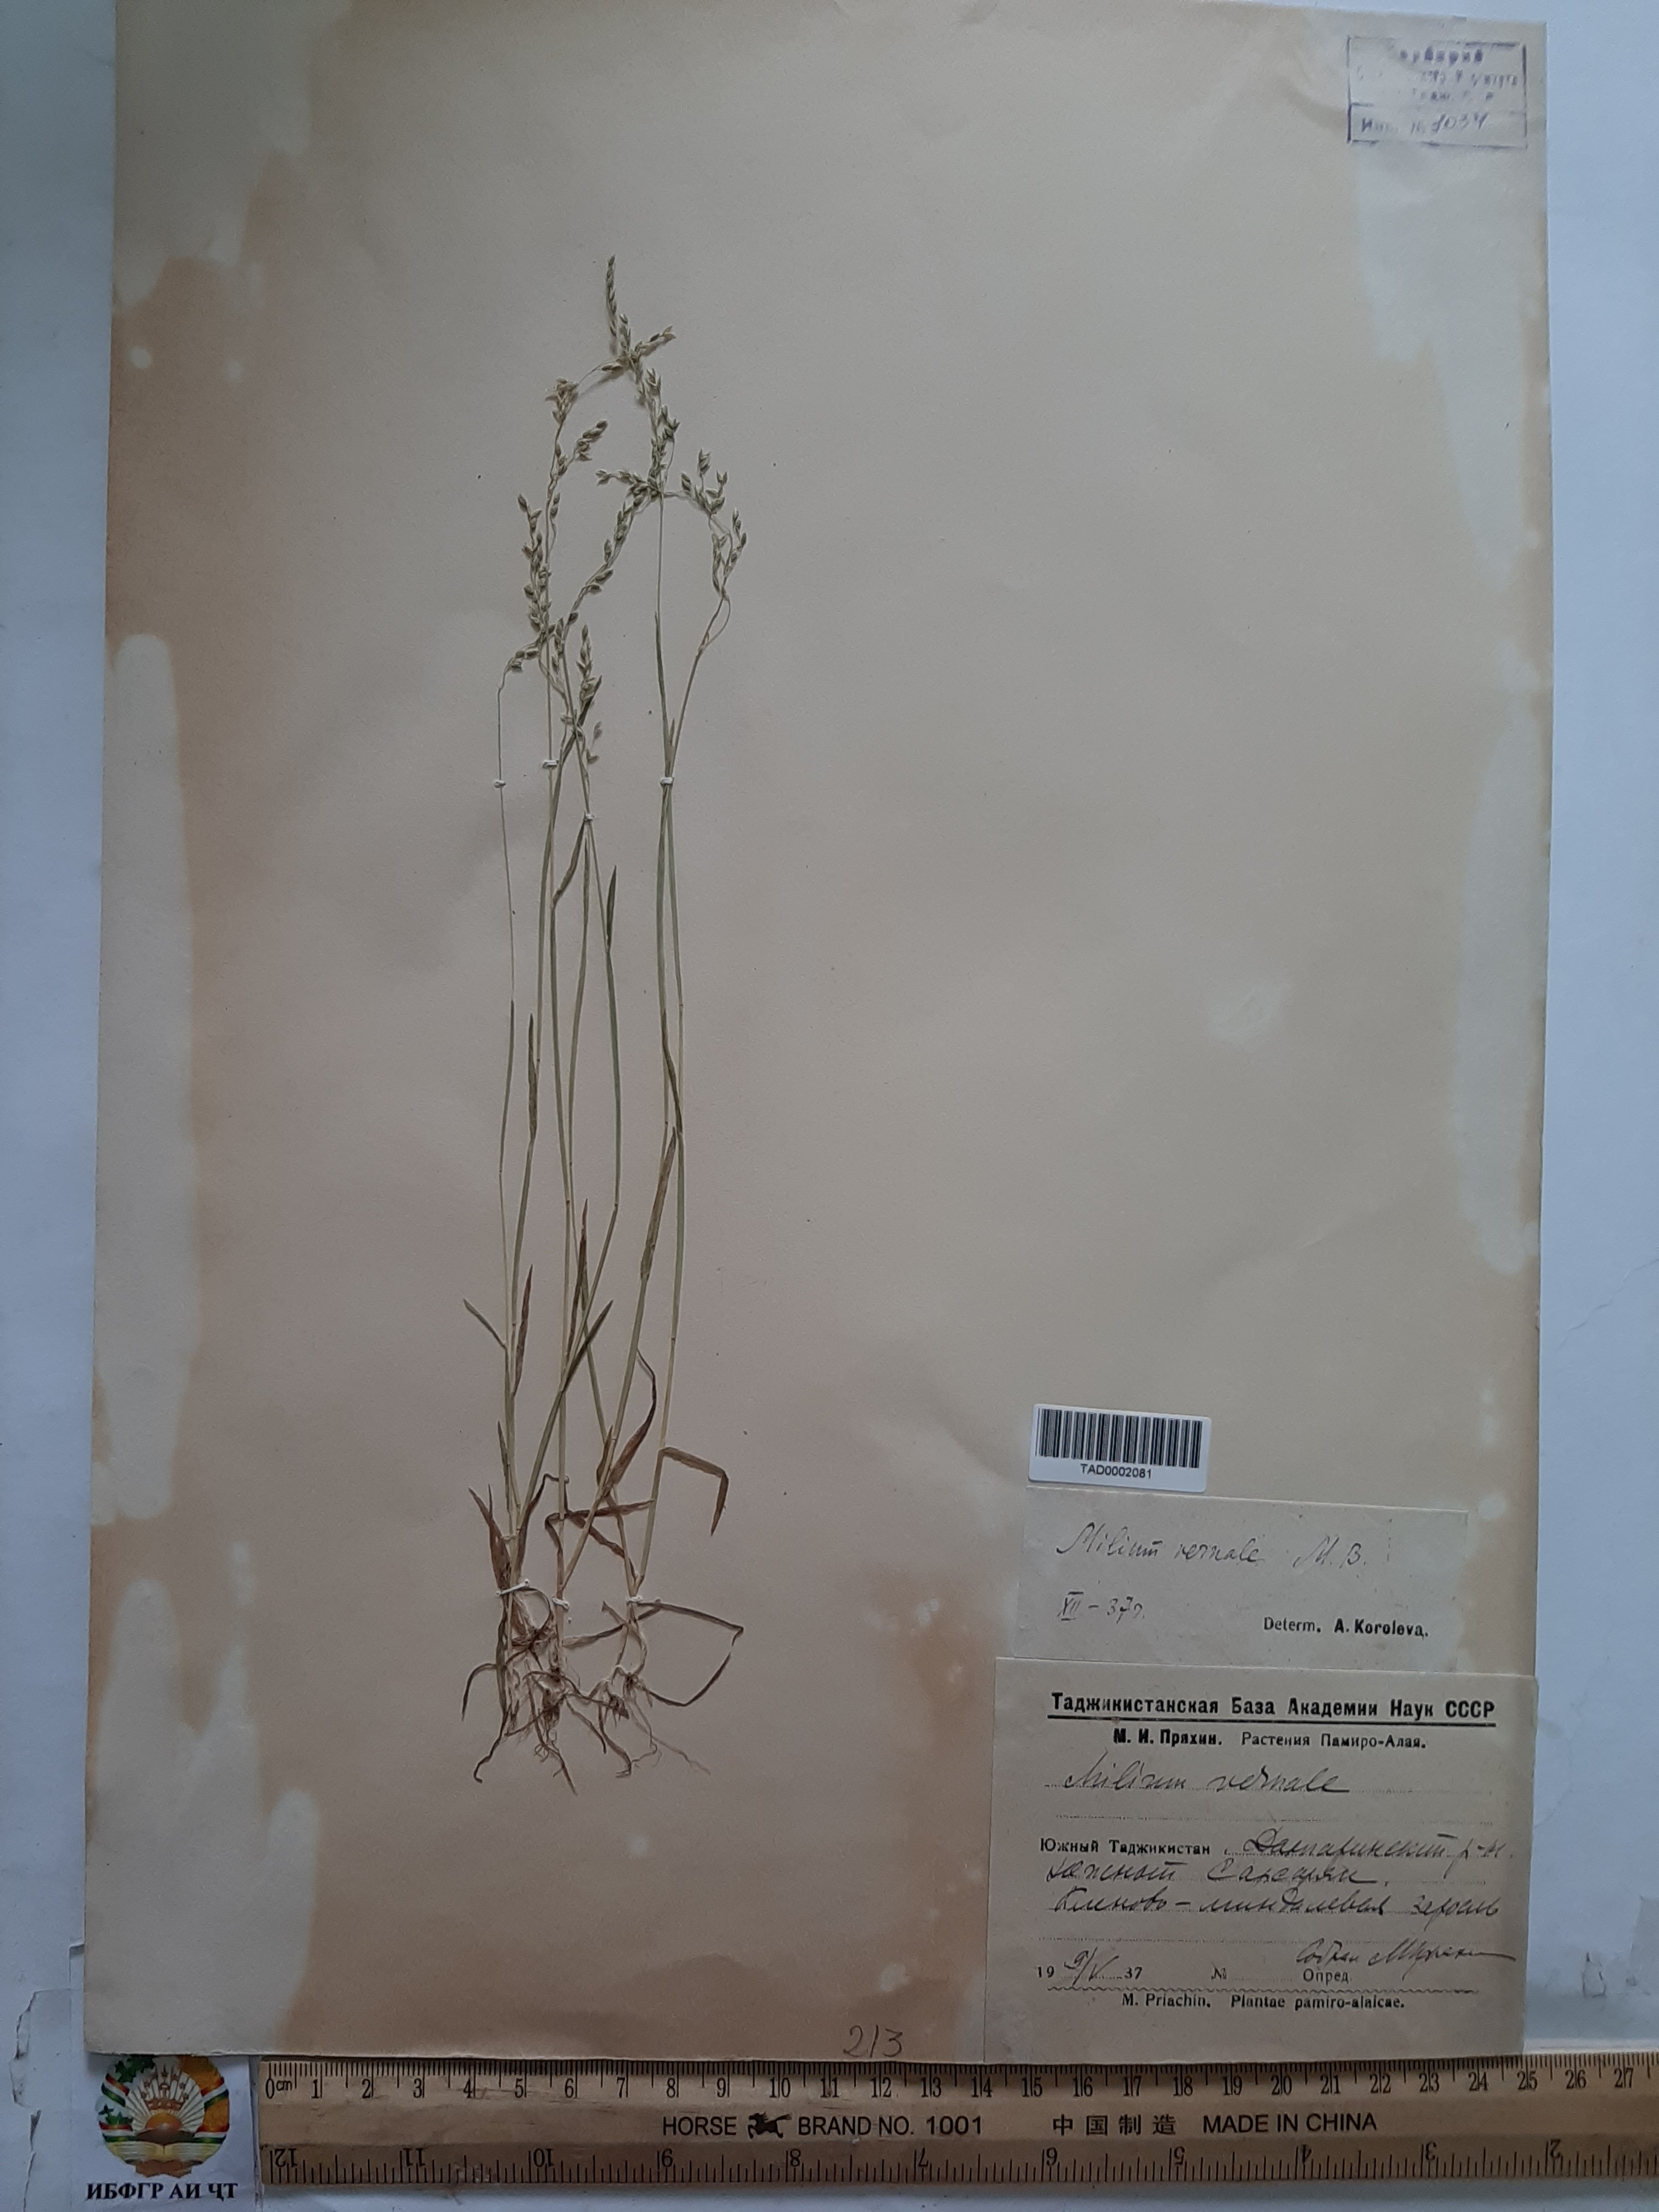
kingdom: Plantae
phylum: Tracheophyta
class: Liliopsida
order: Poales
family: Poaceae
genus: Milium
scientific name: Milium vernale
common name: Early millet
